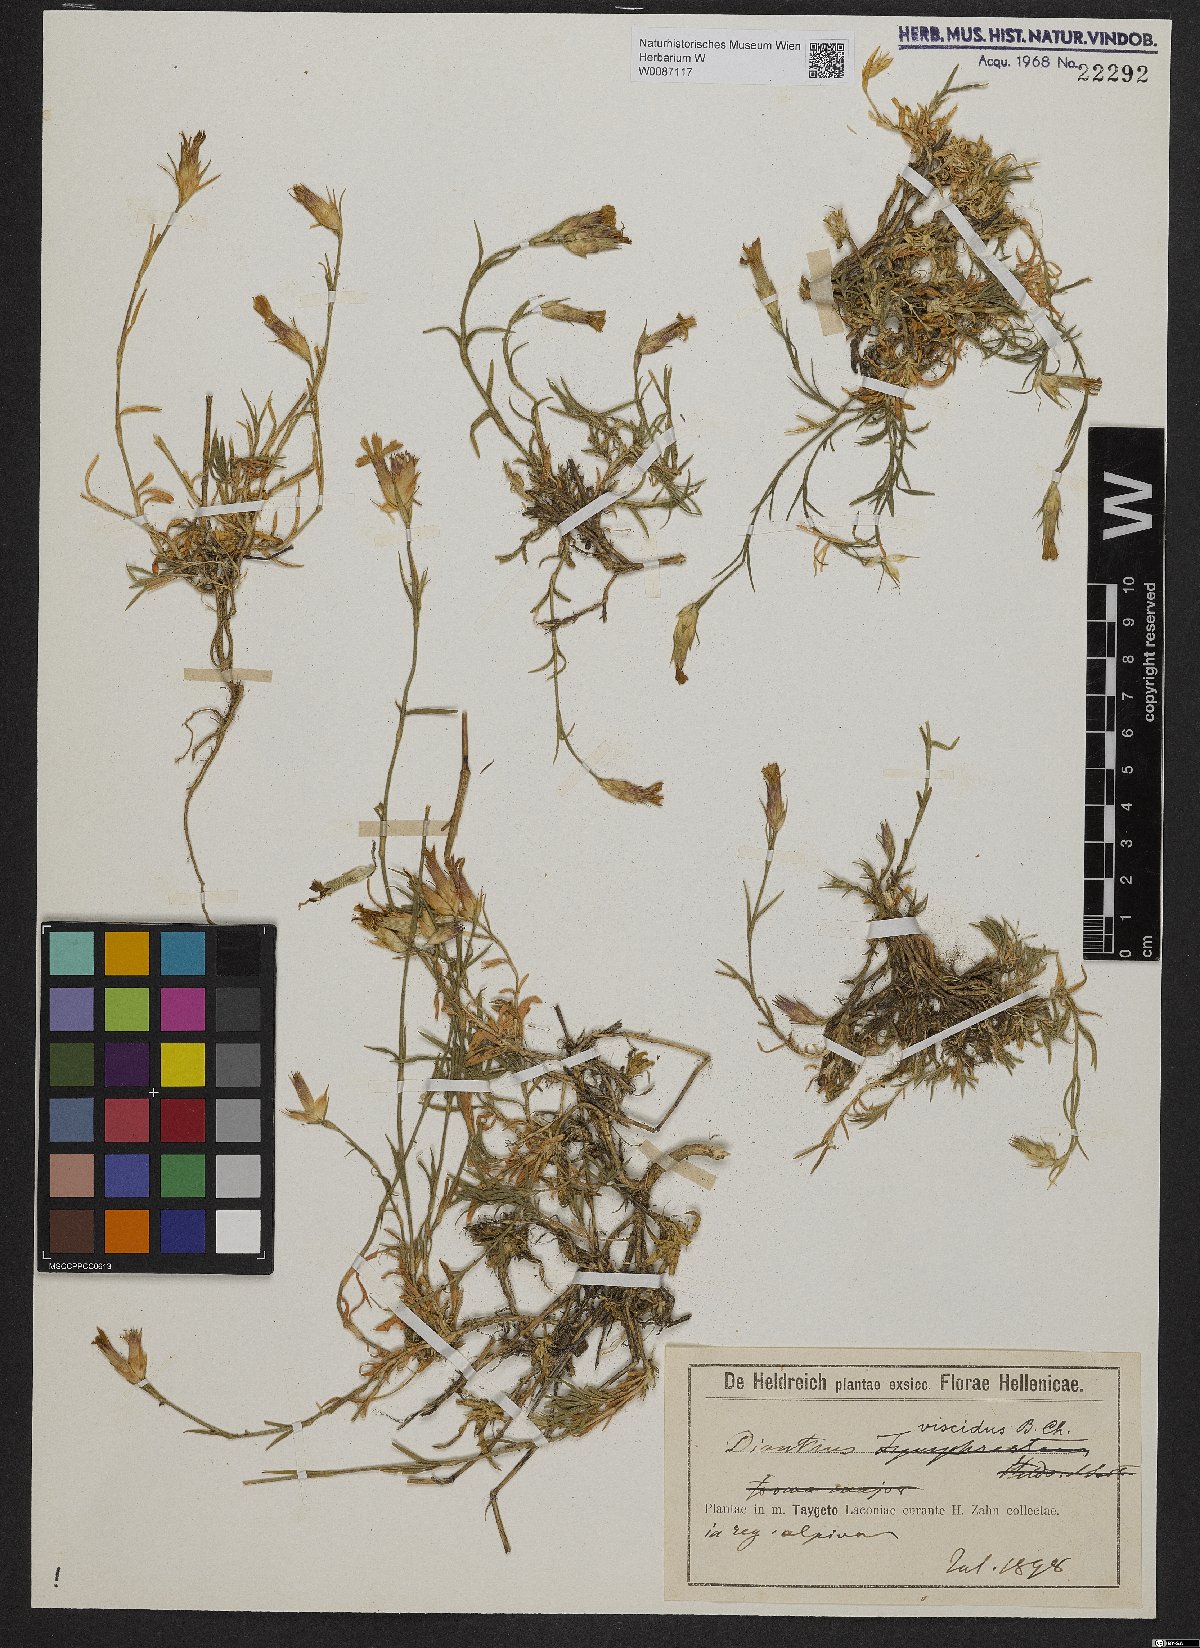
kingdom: Plantae
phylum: Tracheophyta
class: Magnoliopsida
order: Caryophyllales
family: Caryophyllaceae
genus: Dianthus
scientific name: Dianthus viscidus
